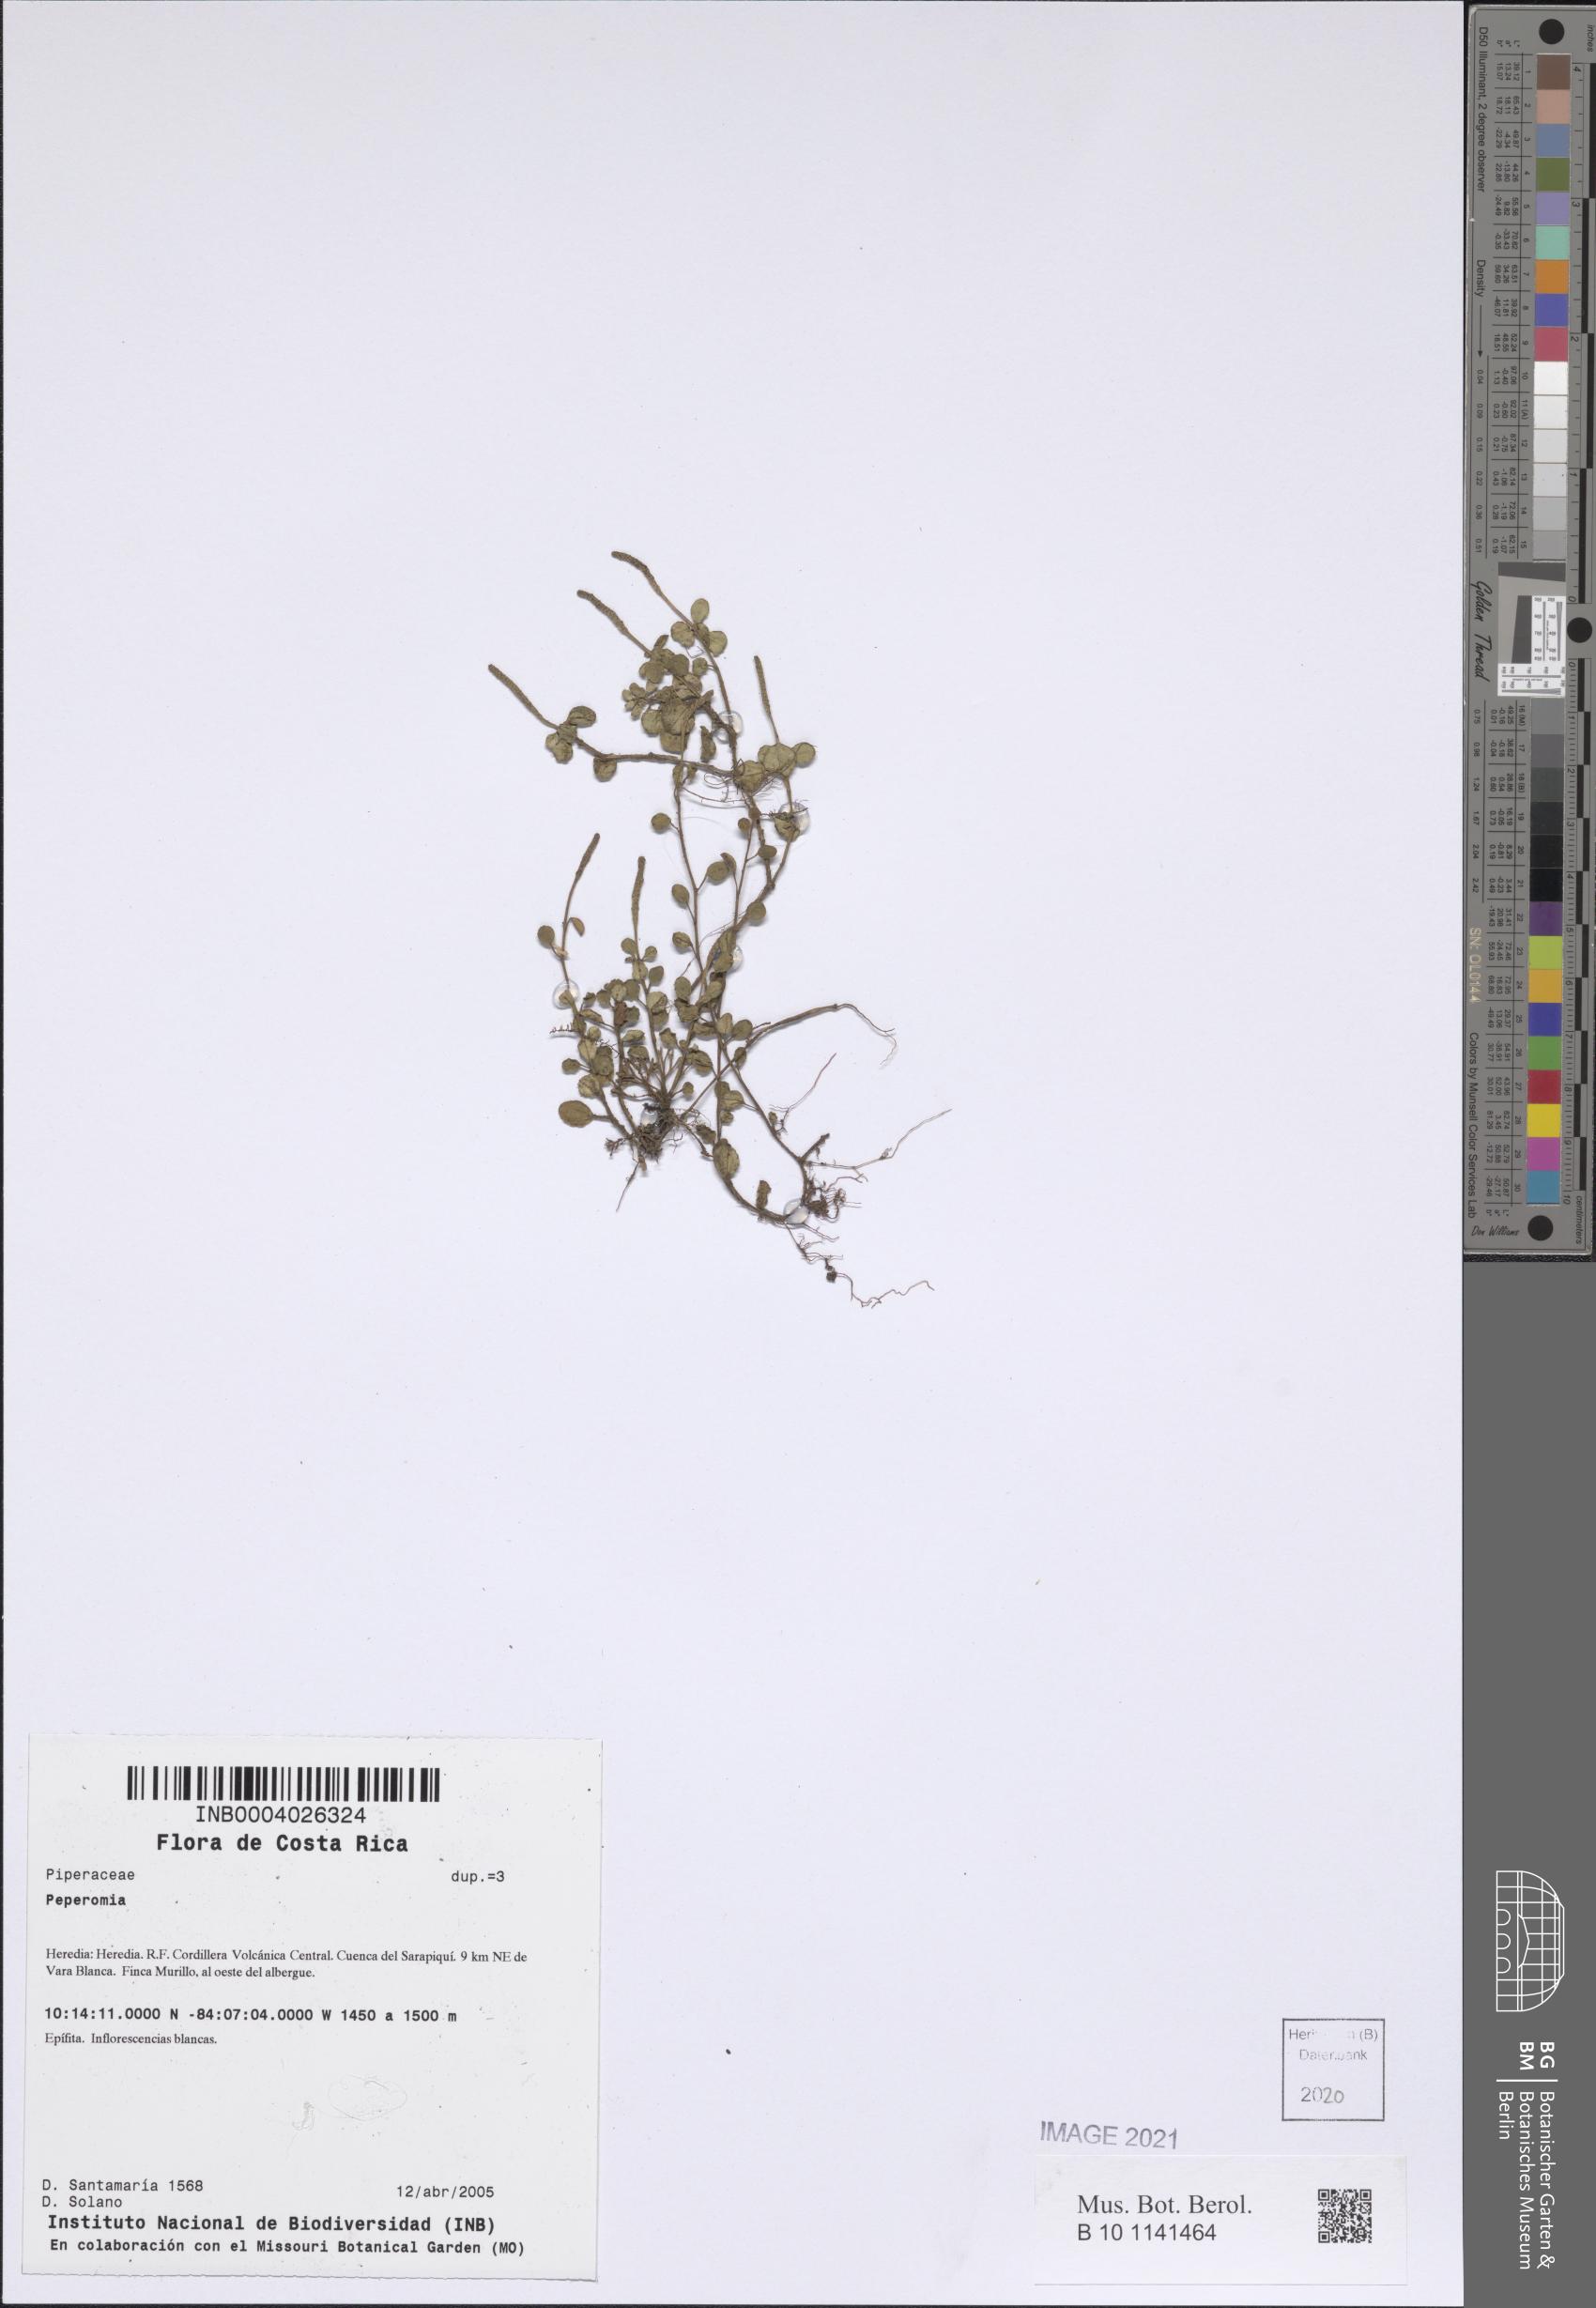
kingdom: Plantae
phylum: Tracheophyta
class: Magnoliopsida
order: Piperales
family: Piperaceae
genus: Peperomia
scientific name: Peperomia
